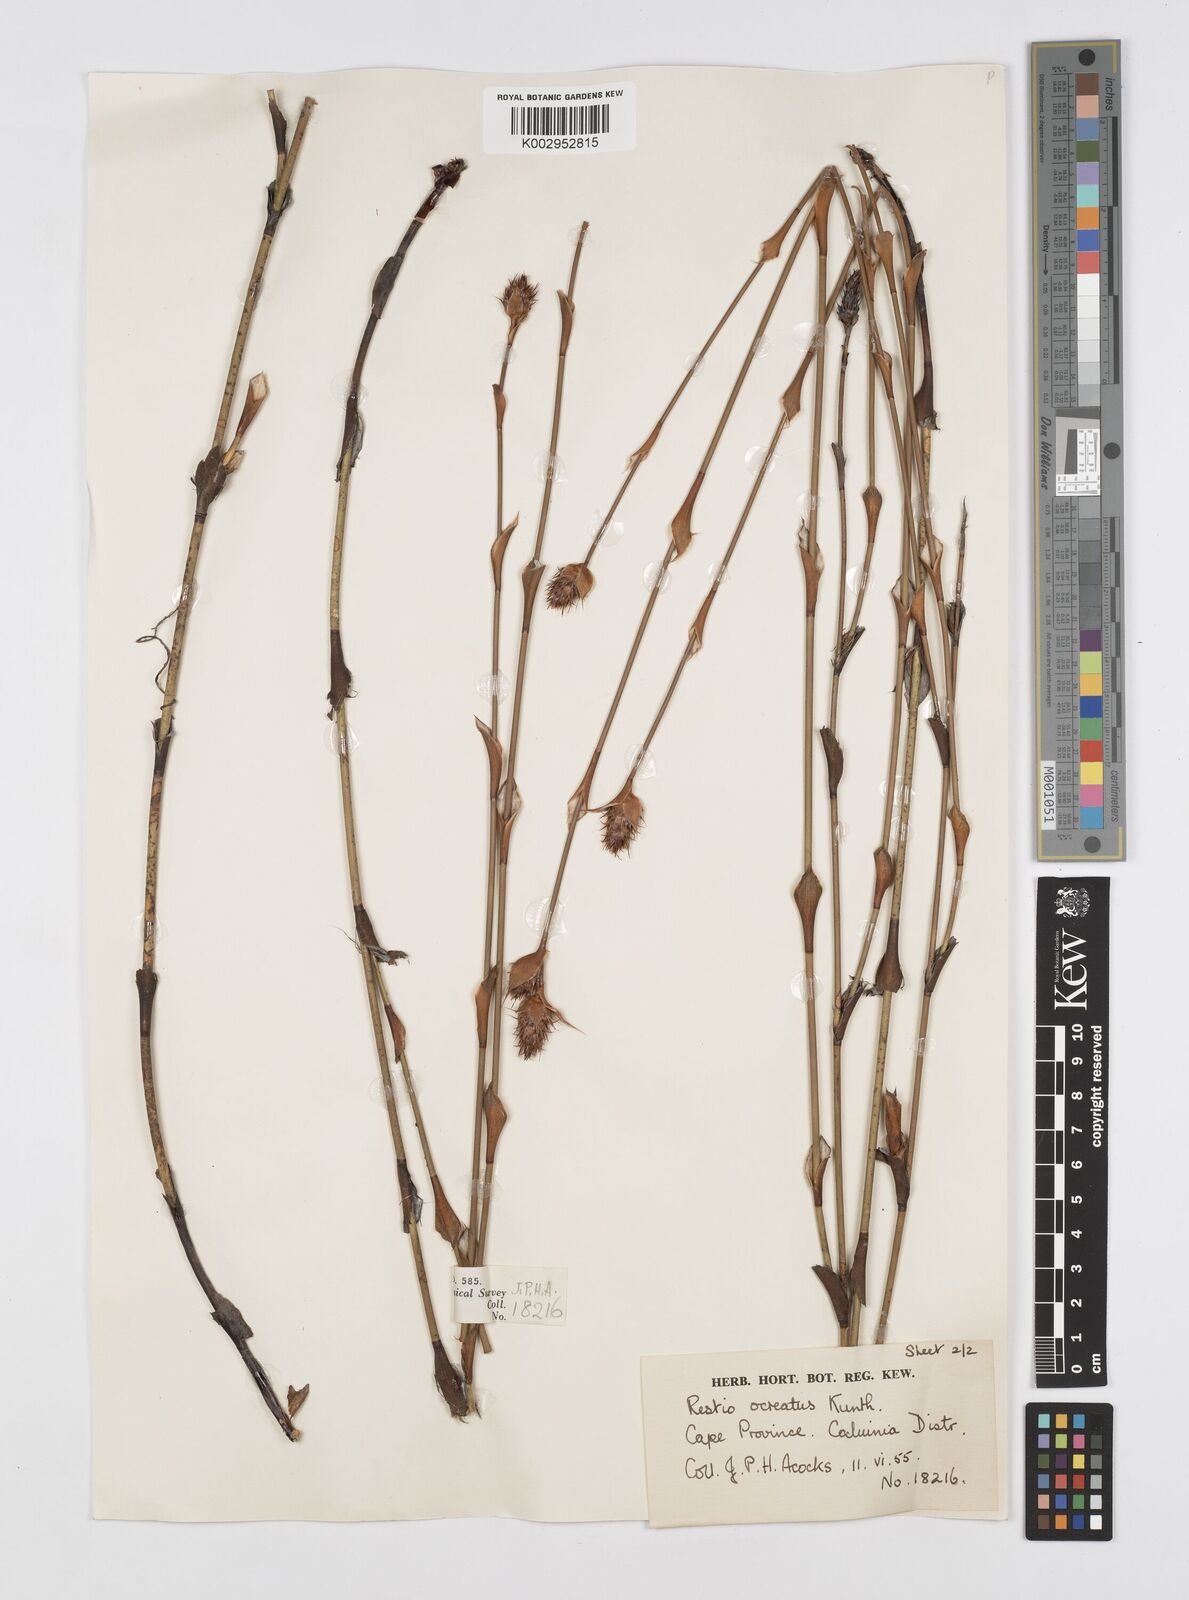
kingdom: Plantae
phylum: Tracheophyta
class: Liliopsida
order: Poales
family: Restionaceae
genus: Restio
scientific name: Restio ocreatus
